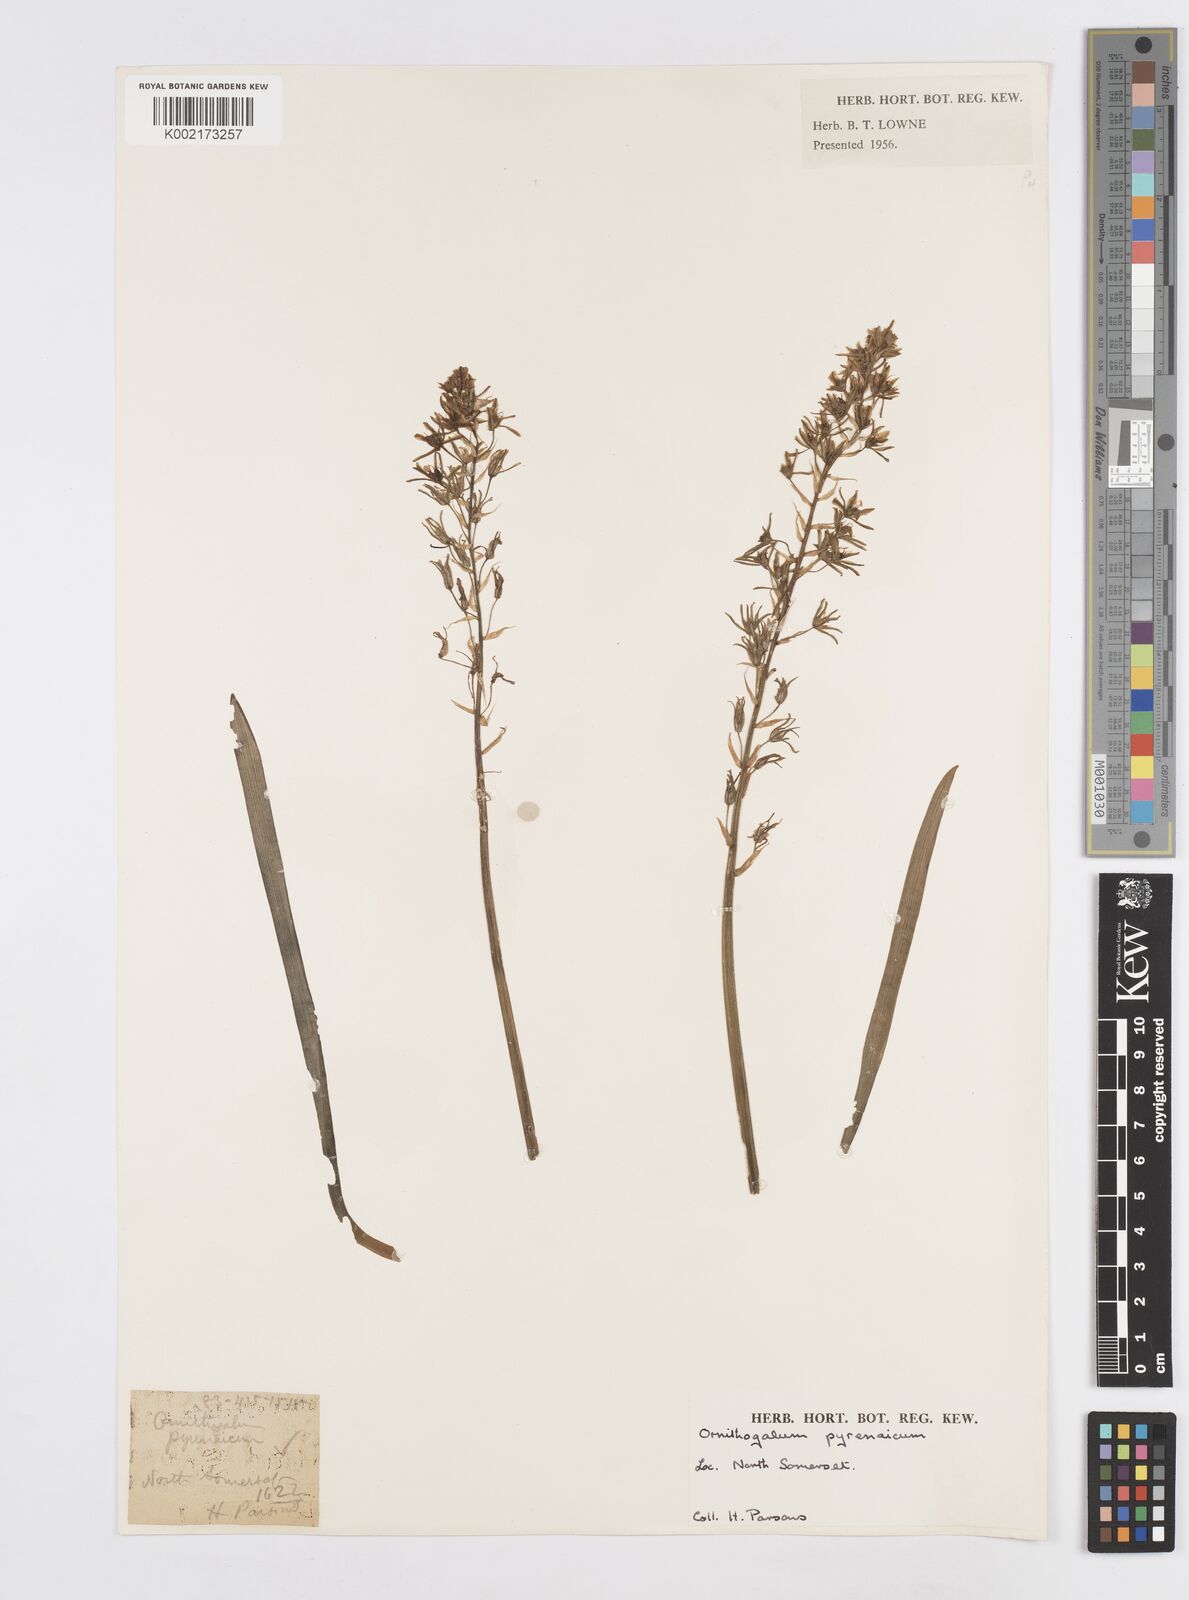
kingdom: Plantae
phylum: Tracheophyta
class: Liliopsida
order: Asparagales
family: Asparagaceae
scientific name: Asparagaceae
